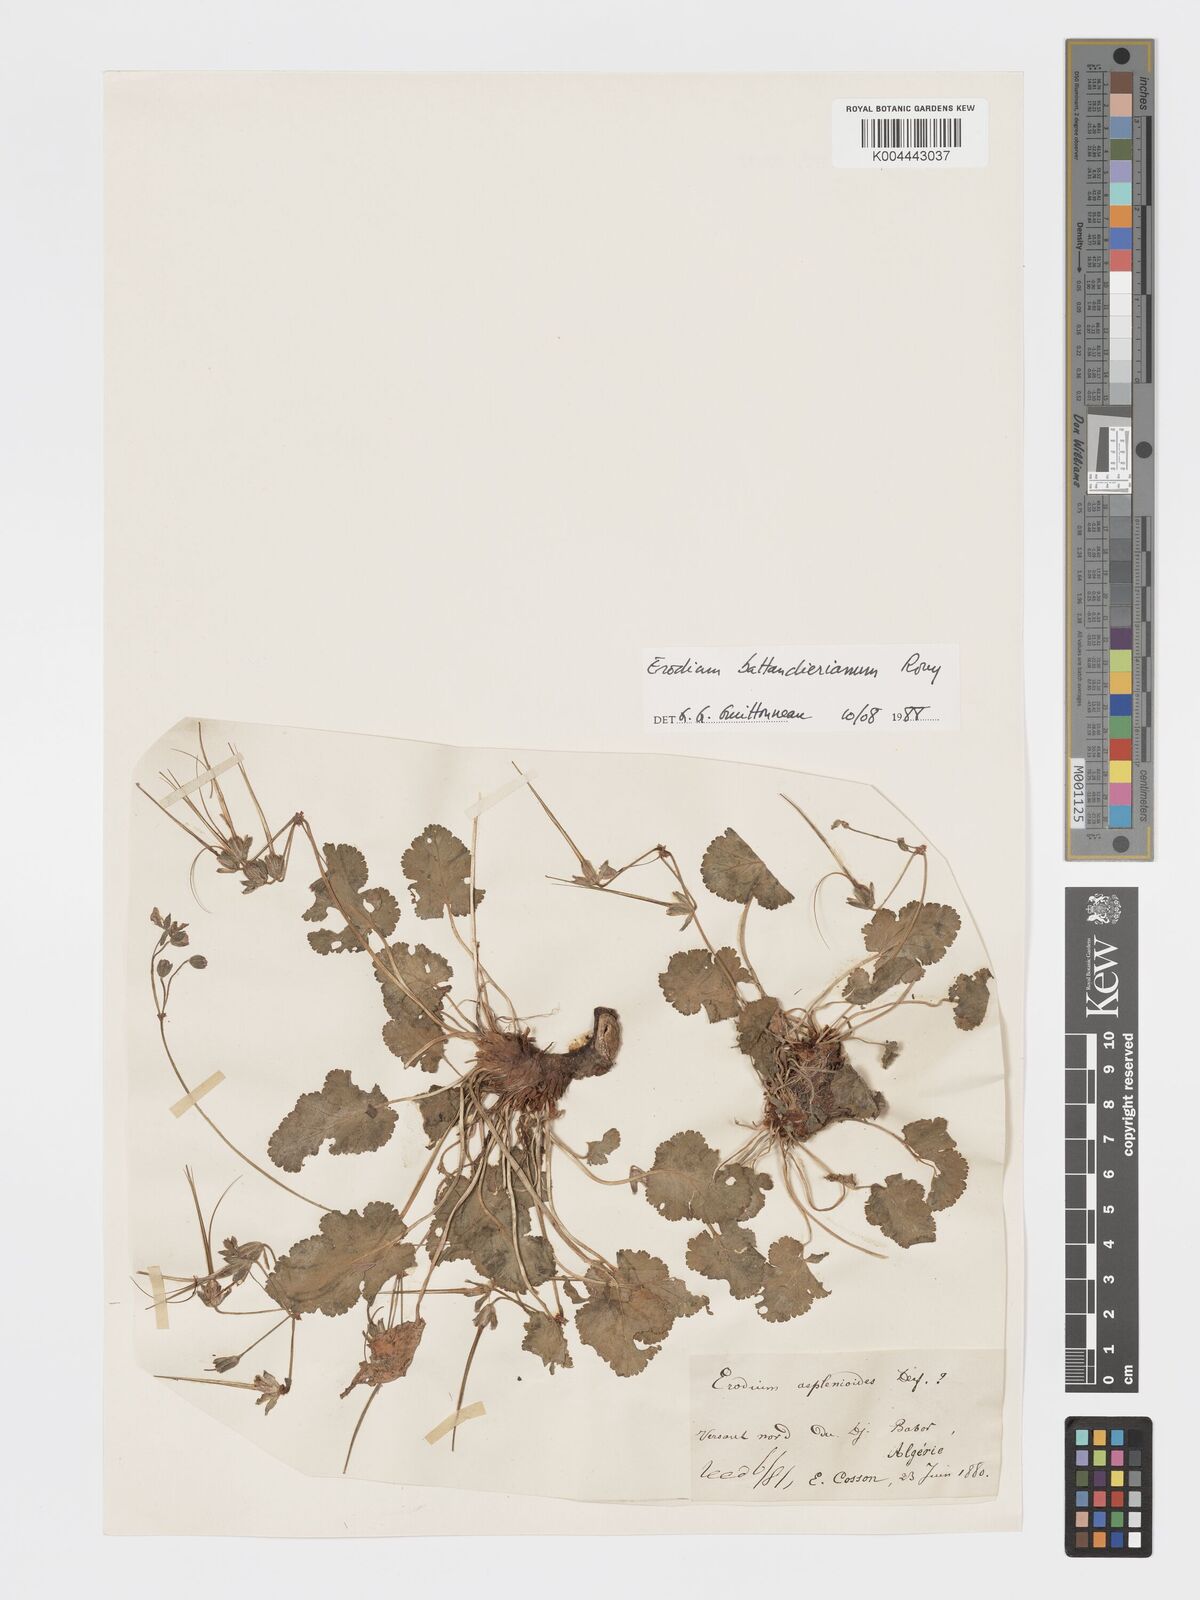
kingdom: Plantae
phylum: Tracheophyta
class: Magnoliopsida
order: Geraniales
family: Geraniaceae
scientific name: Geraniaceae
